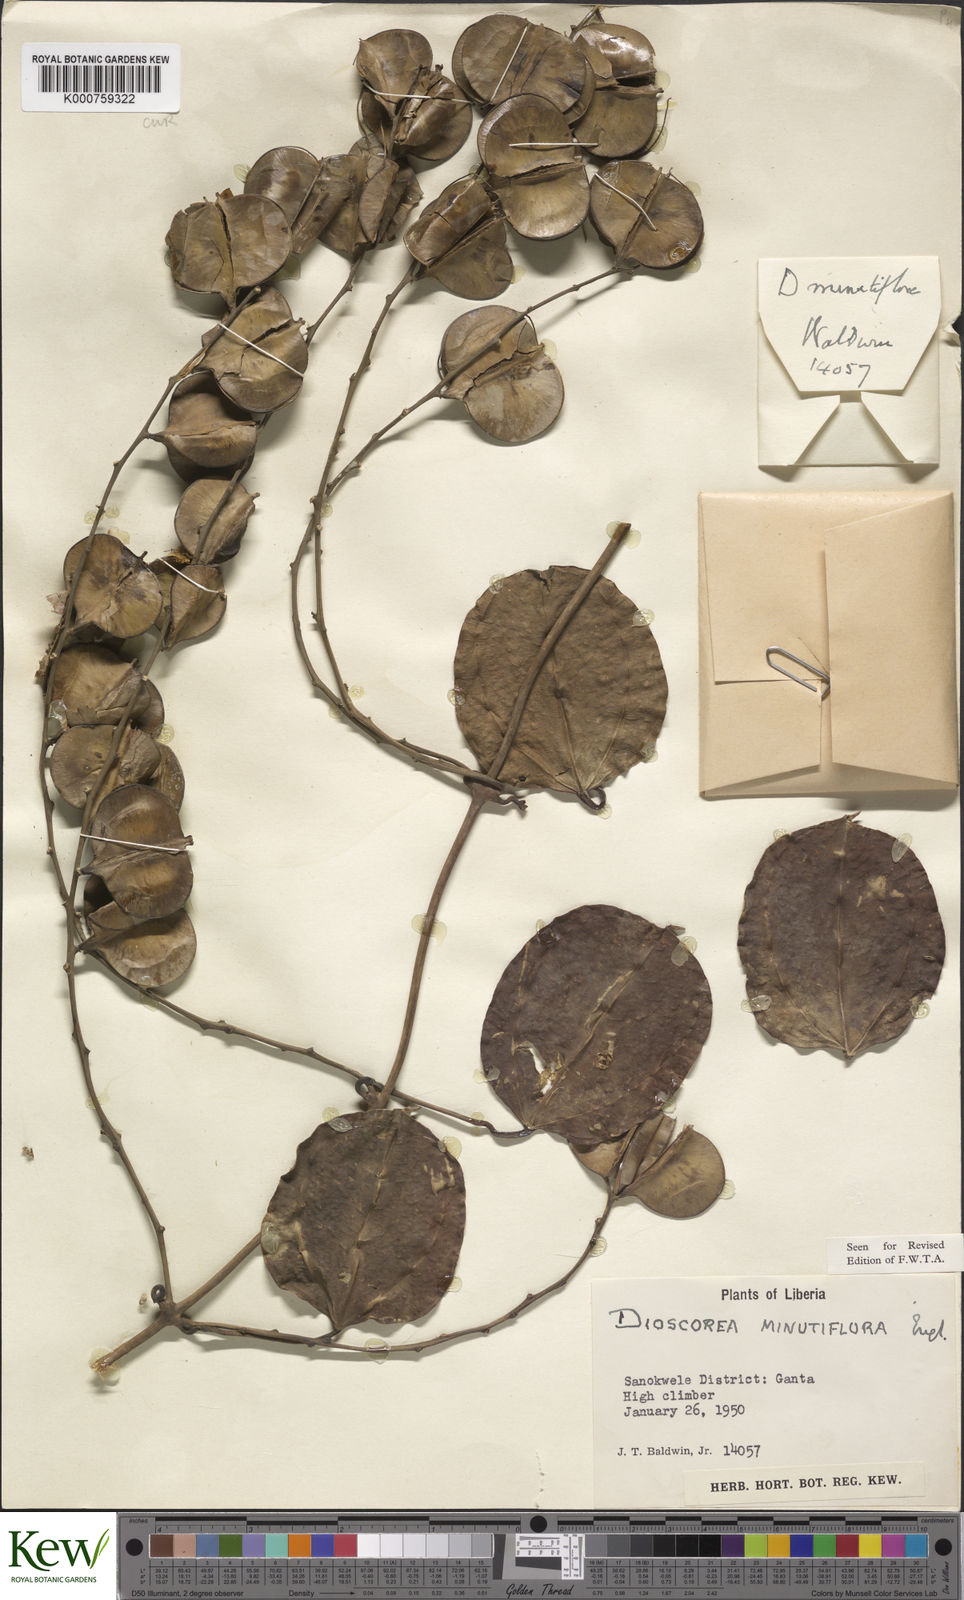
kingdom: Plantae
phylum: Tracheophyta
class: Liliopsida
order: Dioscoreales
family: Dioscoreaceae
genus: Dioscorea
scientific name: Dioscorea minutiflora
